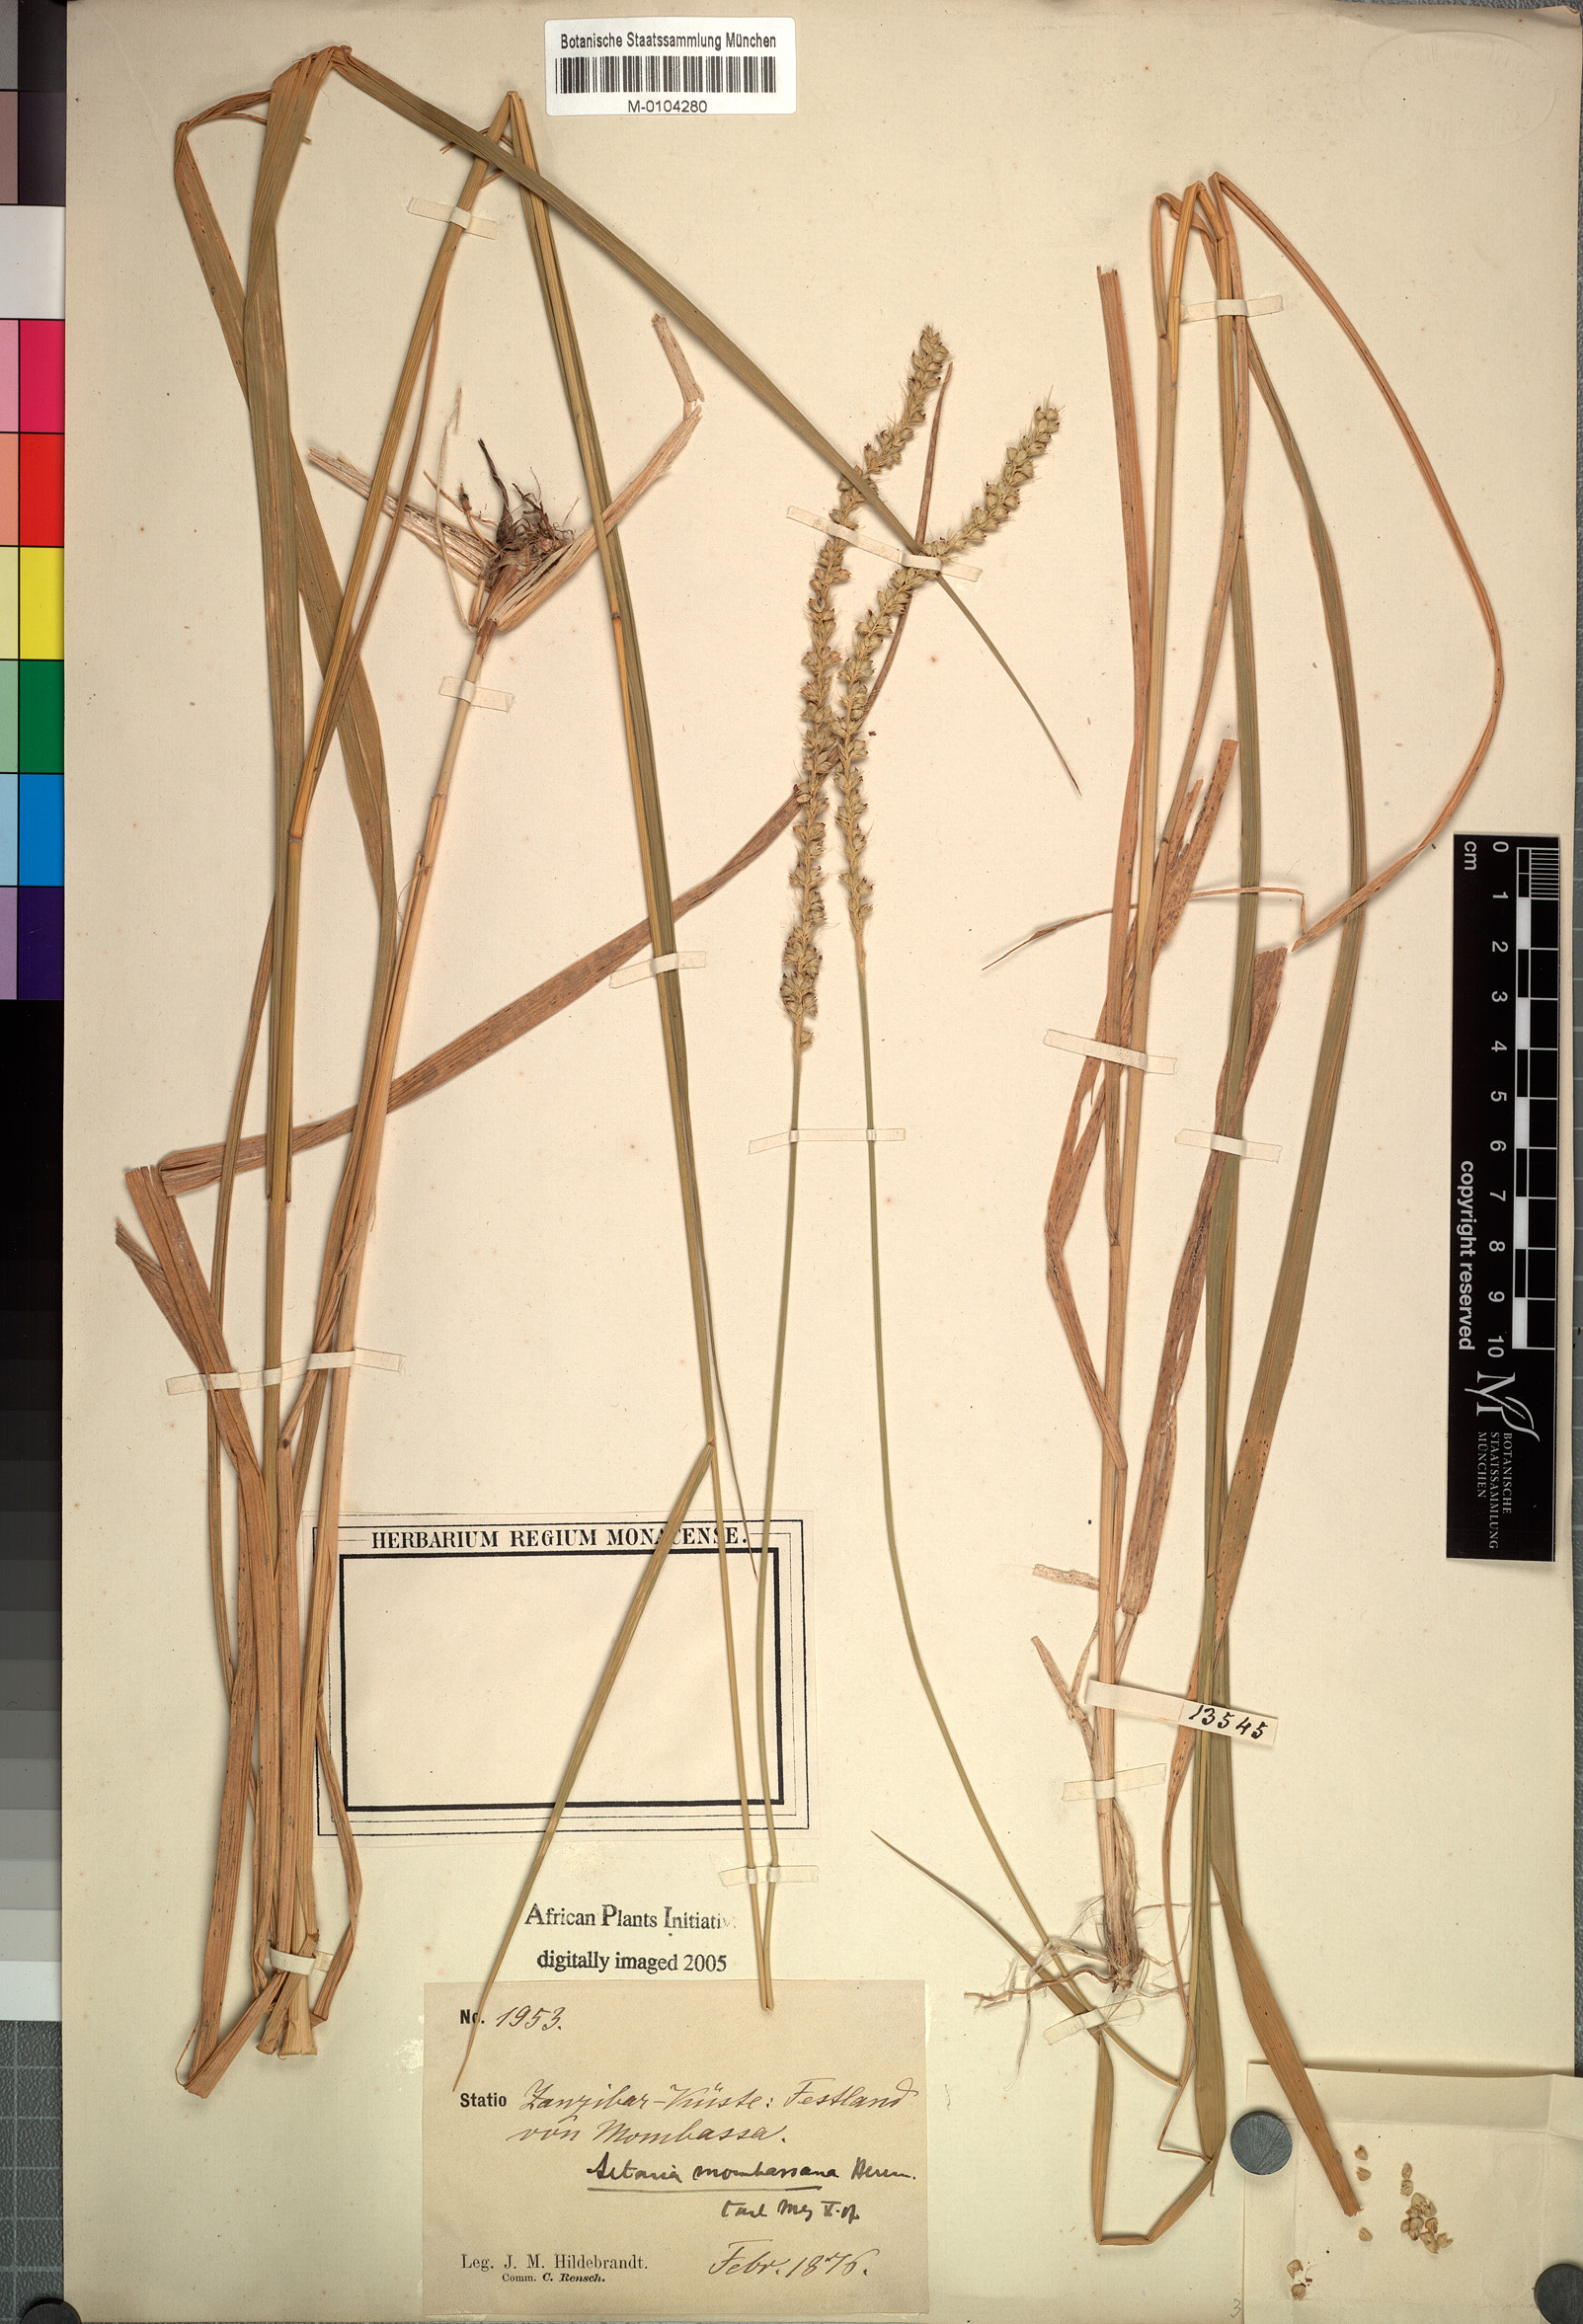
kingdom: Plantae
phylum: Tracheophyta
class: Liliopsida
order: Poales
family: Poaceae
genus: Setaria
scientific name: Setaria incrassata
